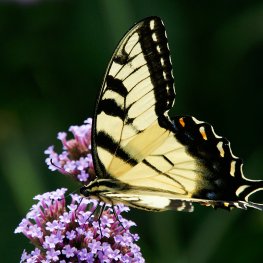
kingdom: Animalia
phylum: Arthropoda
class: Insecta
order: Lepidoptera
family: Papilionidae
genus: Pterourus
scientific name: Pterourus glaucus
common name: Eastern Tiger Swallowtail
